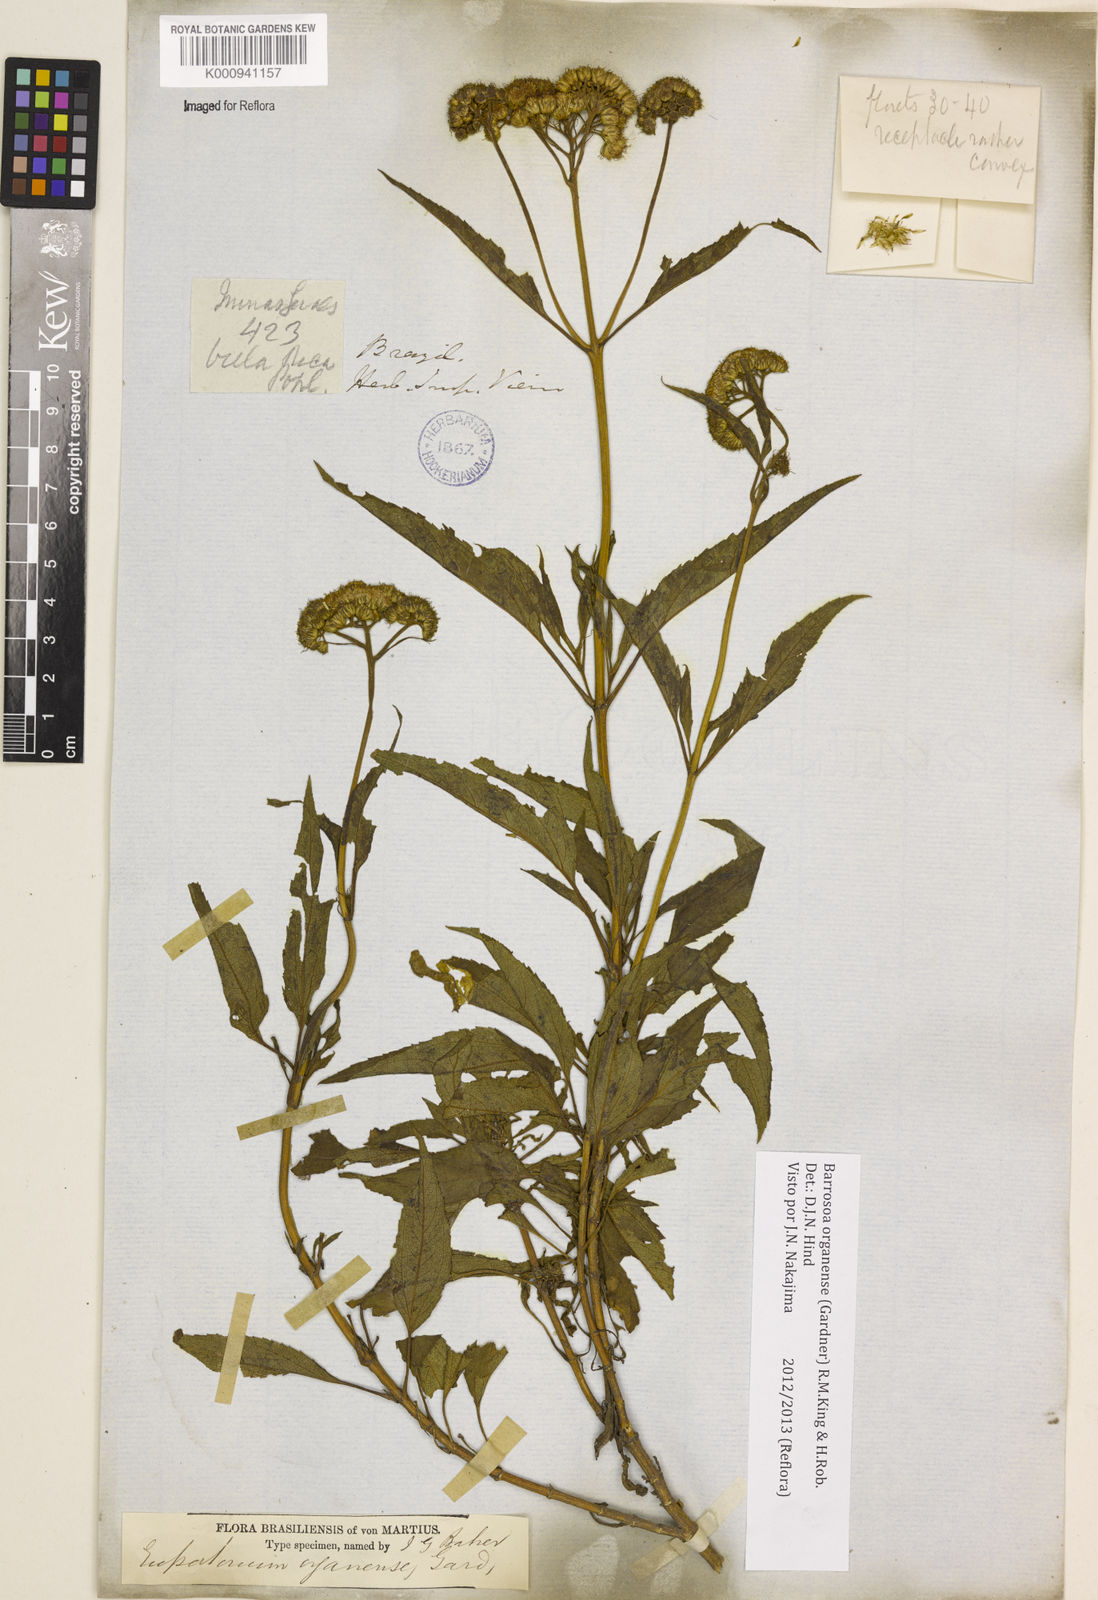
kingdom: Plantae
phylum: Tracheophyta
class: Magnoliopsida
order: Asterales
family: Asteraceae
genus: Barrosoa
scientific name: Barrosoa
